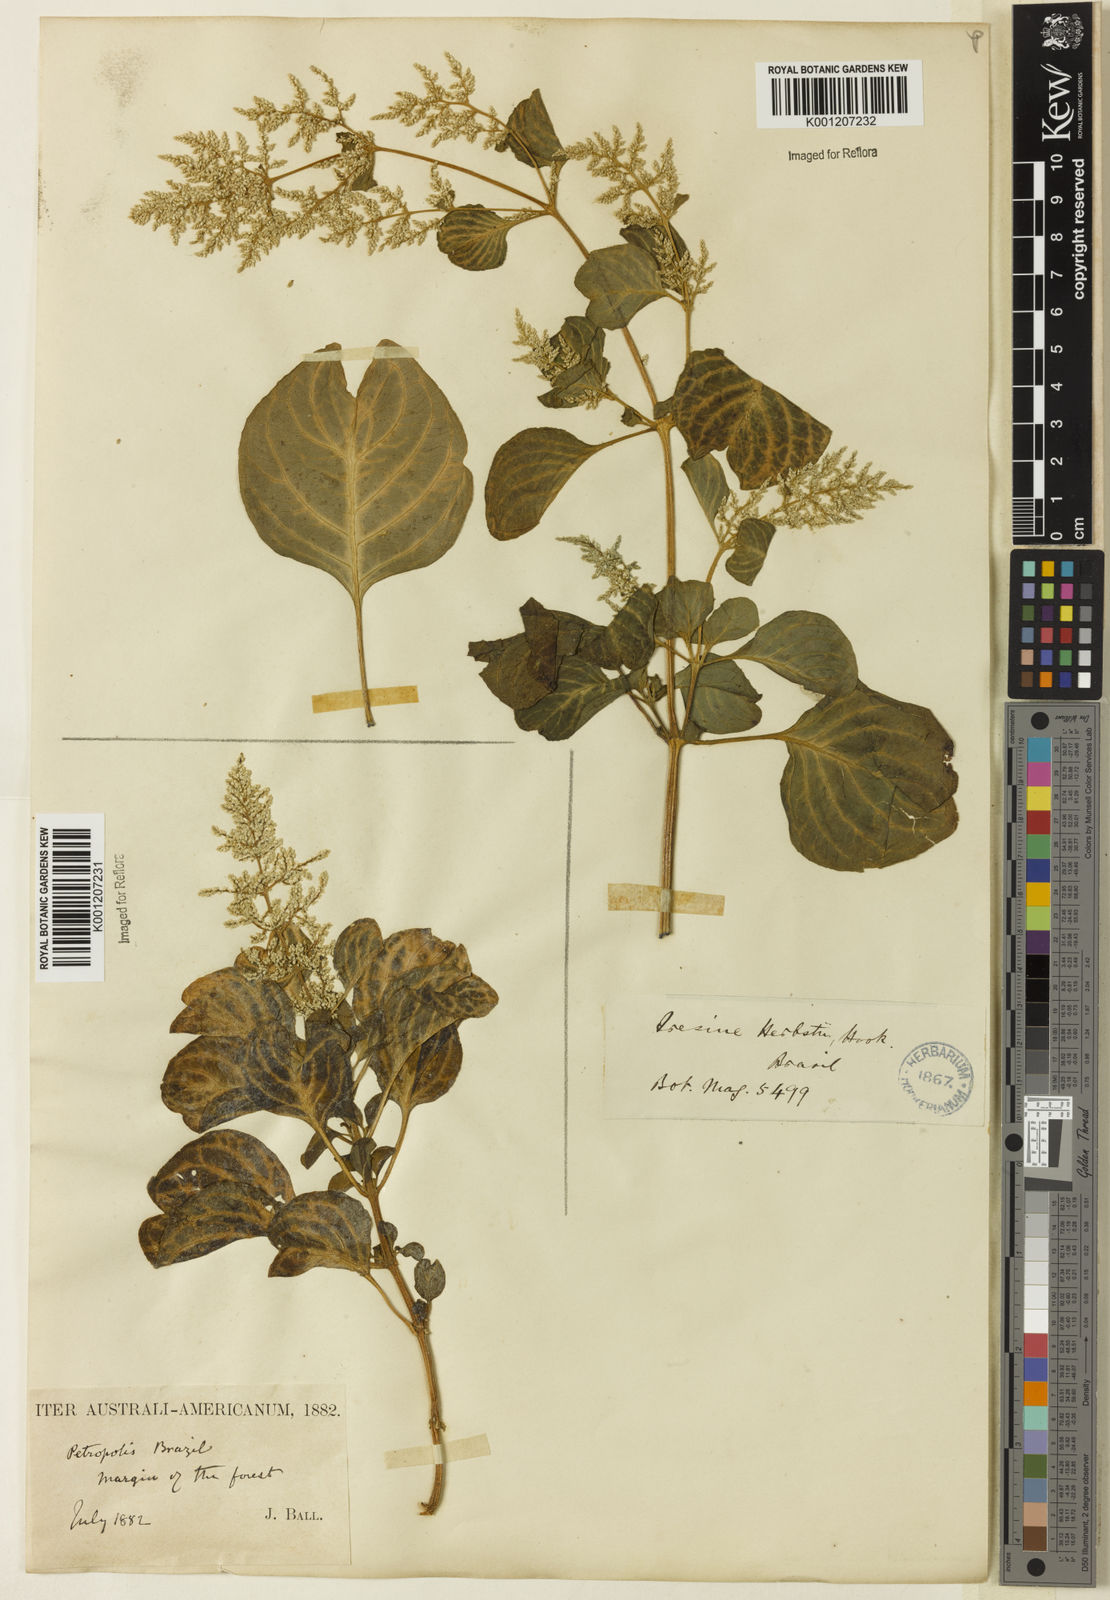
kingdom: Plantae
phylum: Tracheophyta
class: Magnoliopsida
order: Caryophyllales
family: Amaranthaceae
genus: Iresine
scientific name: Iresine diffusa
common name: Juba's-bush
